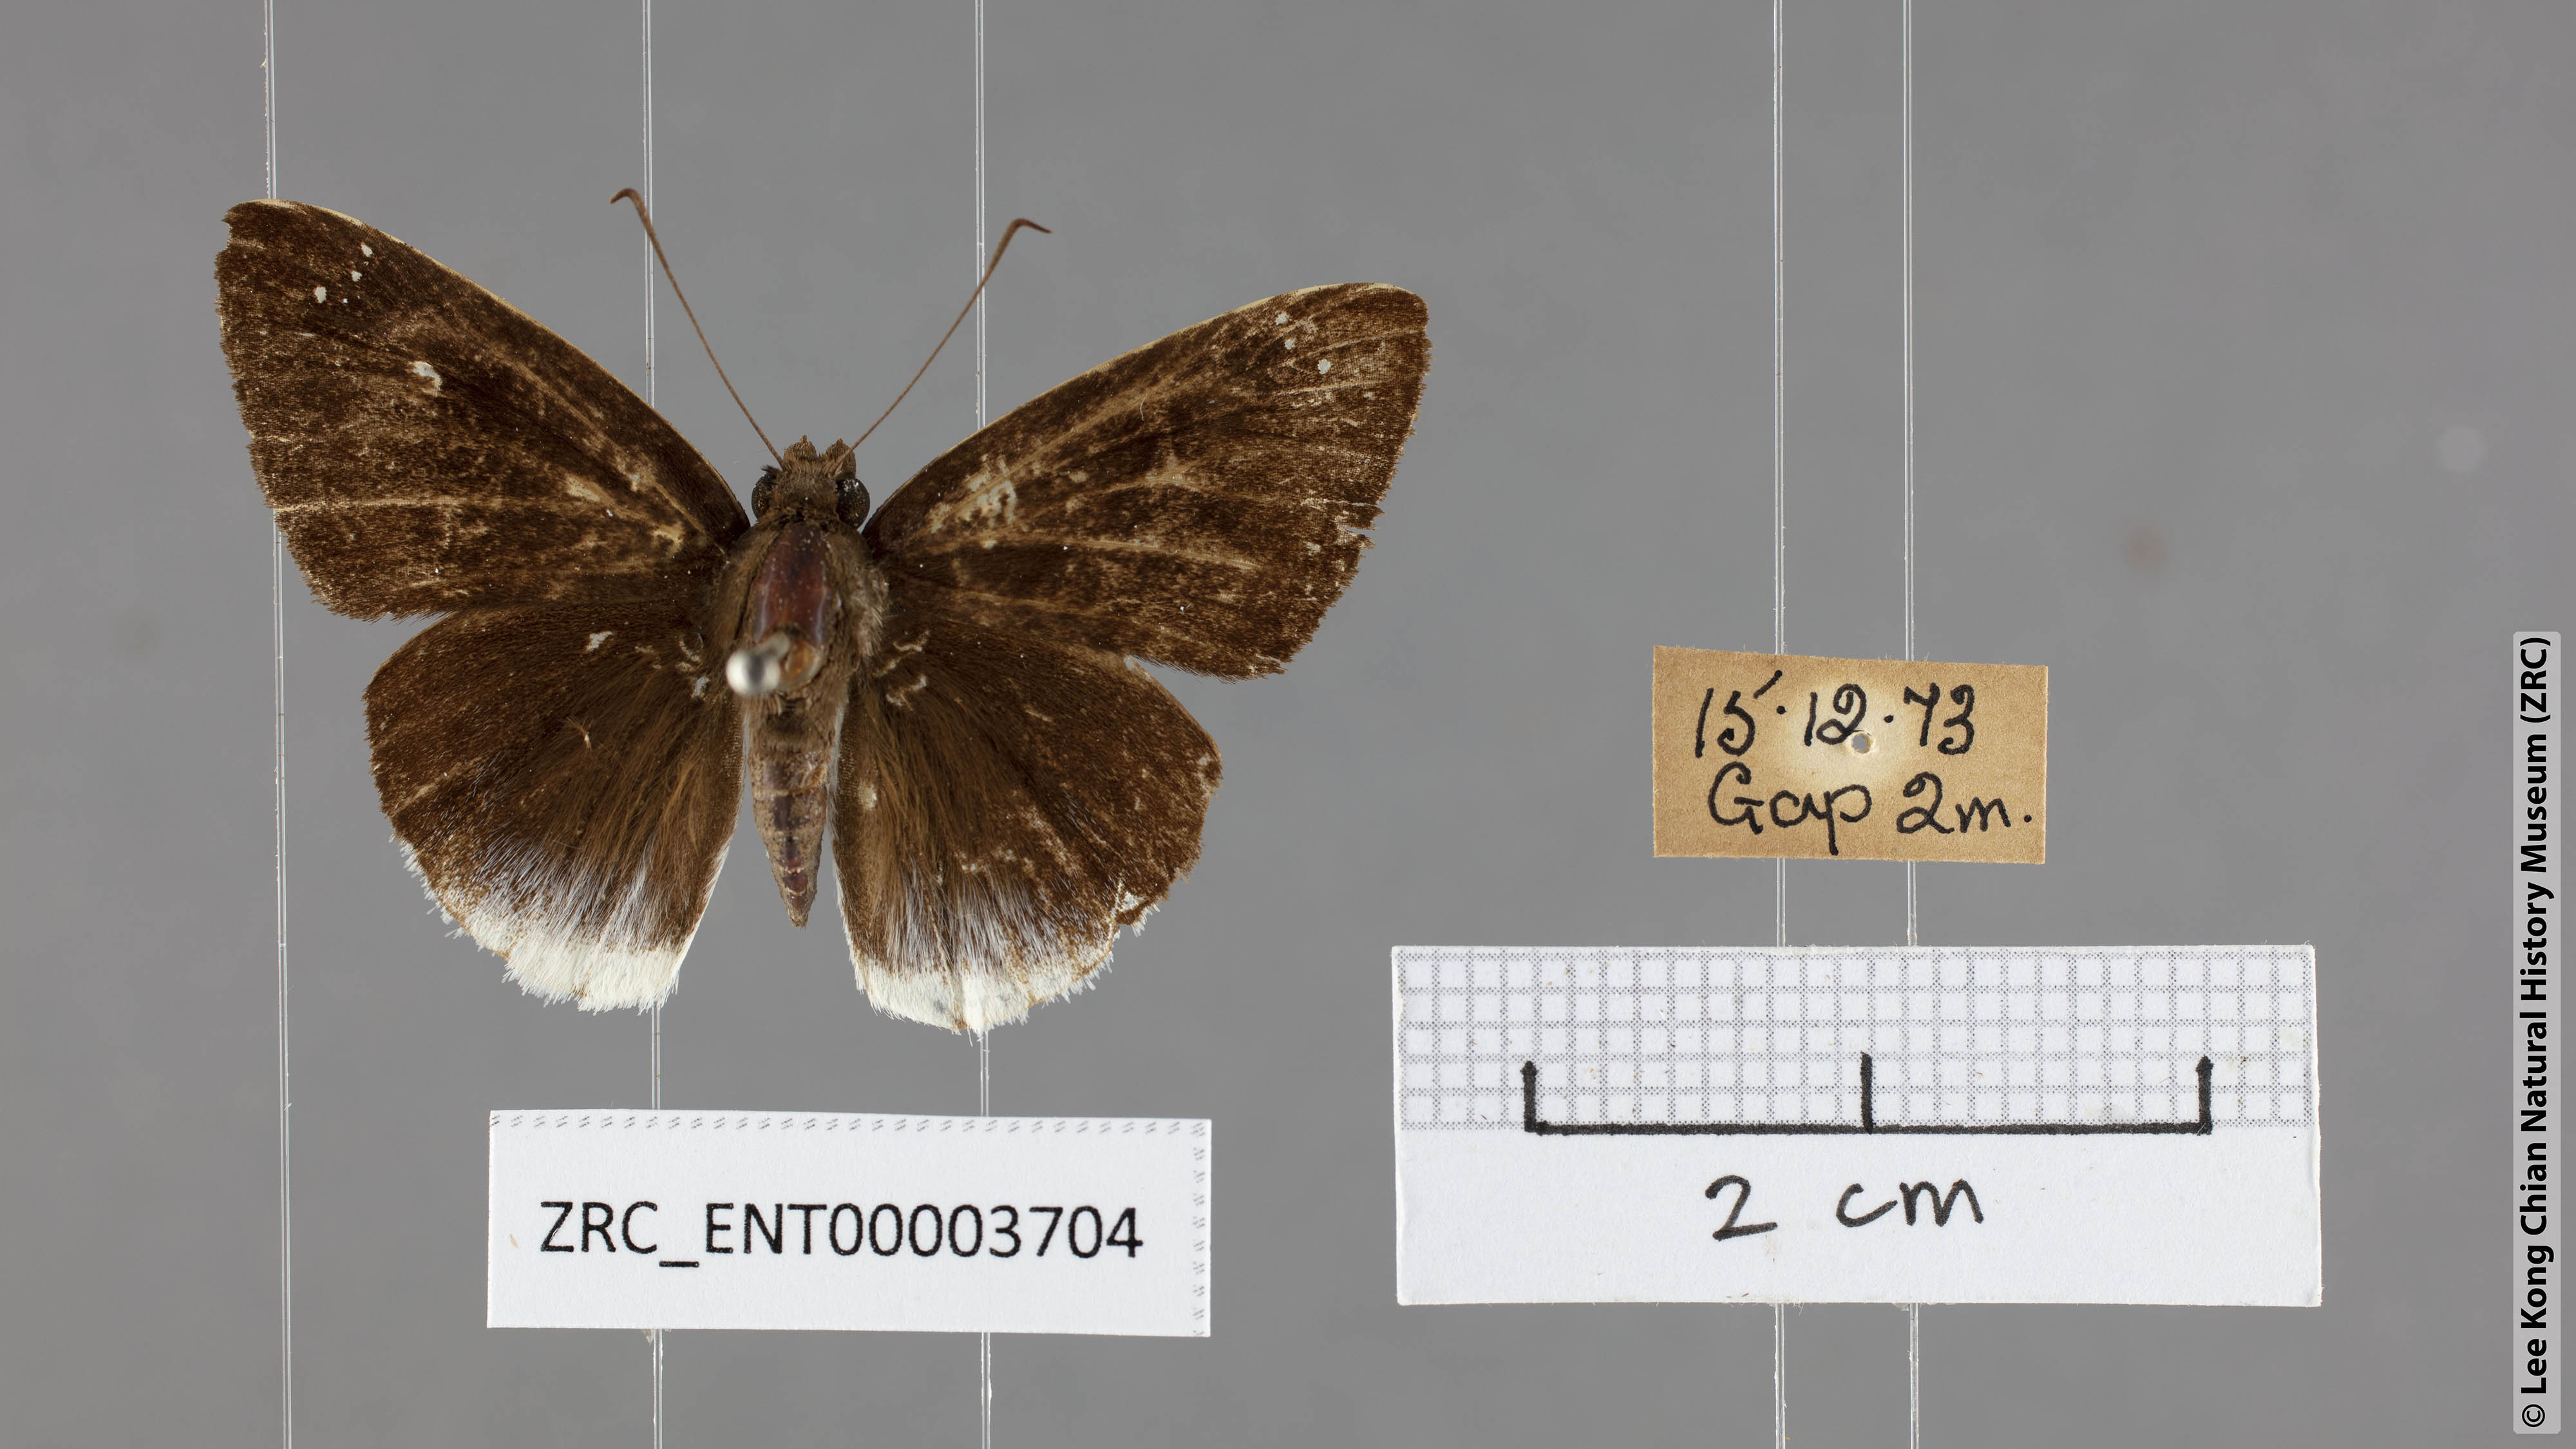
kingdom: Animalia
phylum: Arthropoda
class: Insecta
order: Lepidoptera
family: Hesperiidae
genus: Tagiades
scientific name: Tagiades lavata
